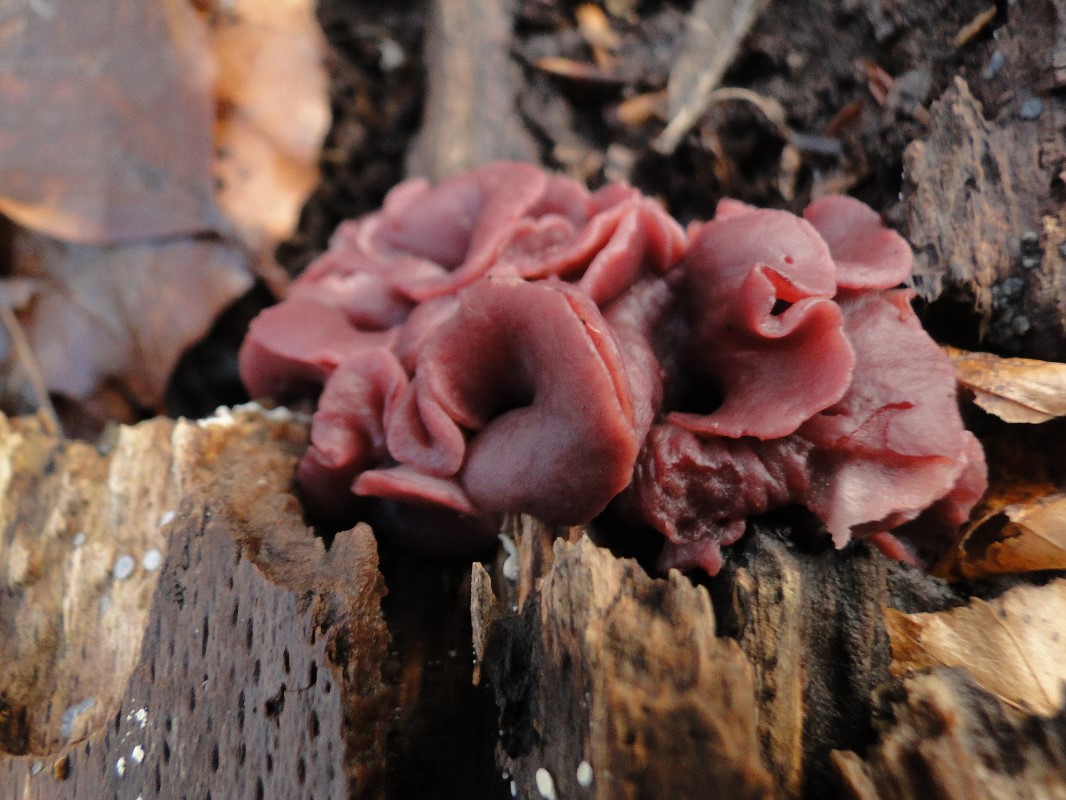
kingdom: Fungi
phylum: Ascomycota
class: Leotiomycetes
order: Helotiales
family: Gelatinodiscaceae
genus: Ascocoryne
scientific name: Ascocoryne cylichnium
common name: stor sejskive
